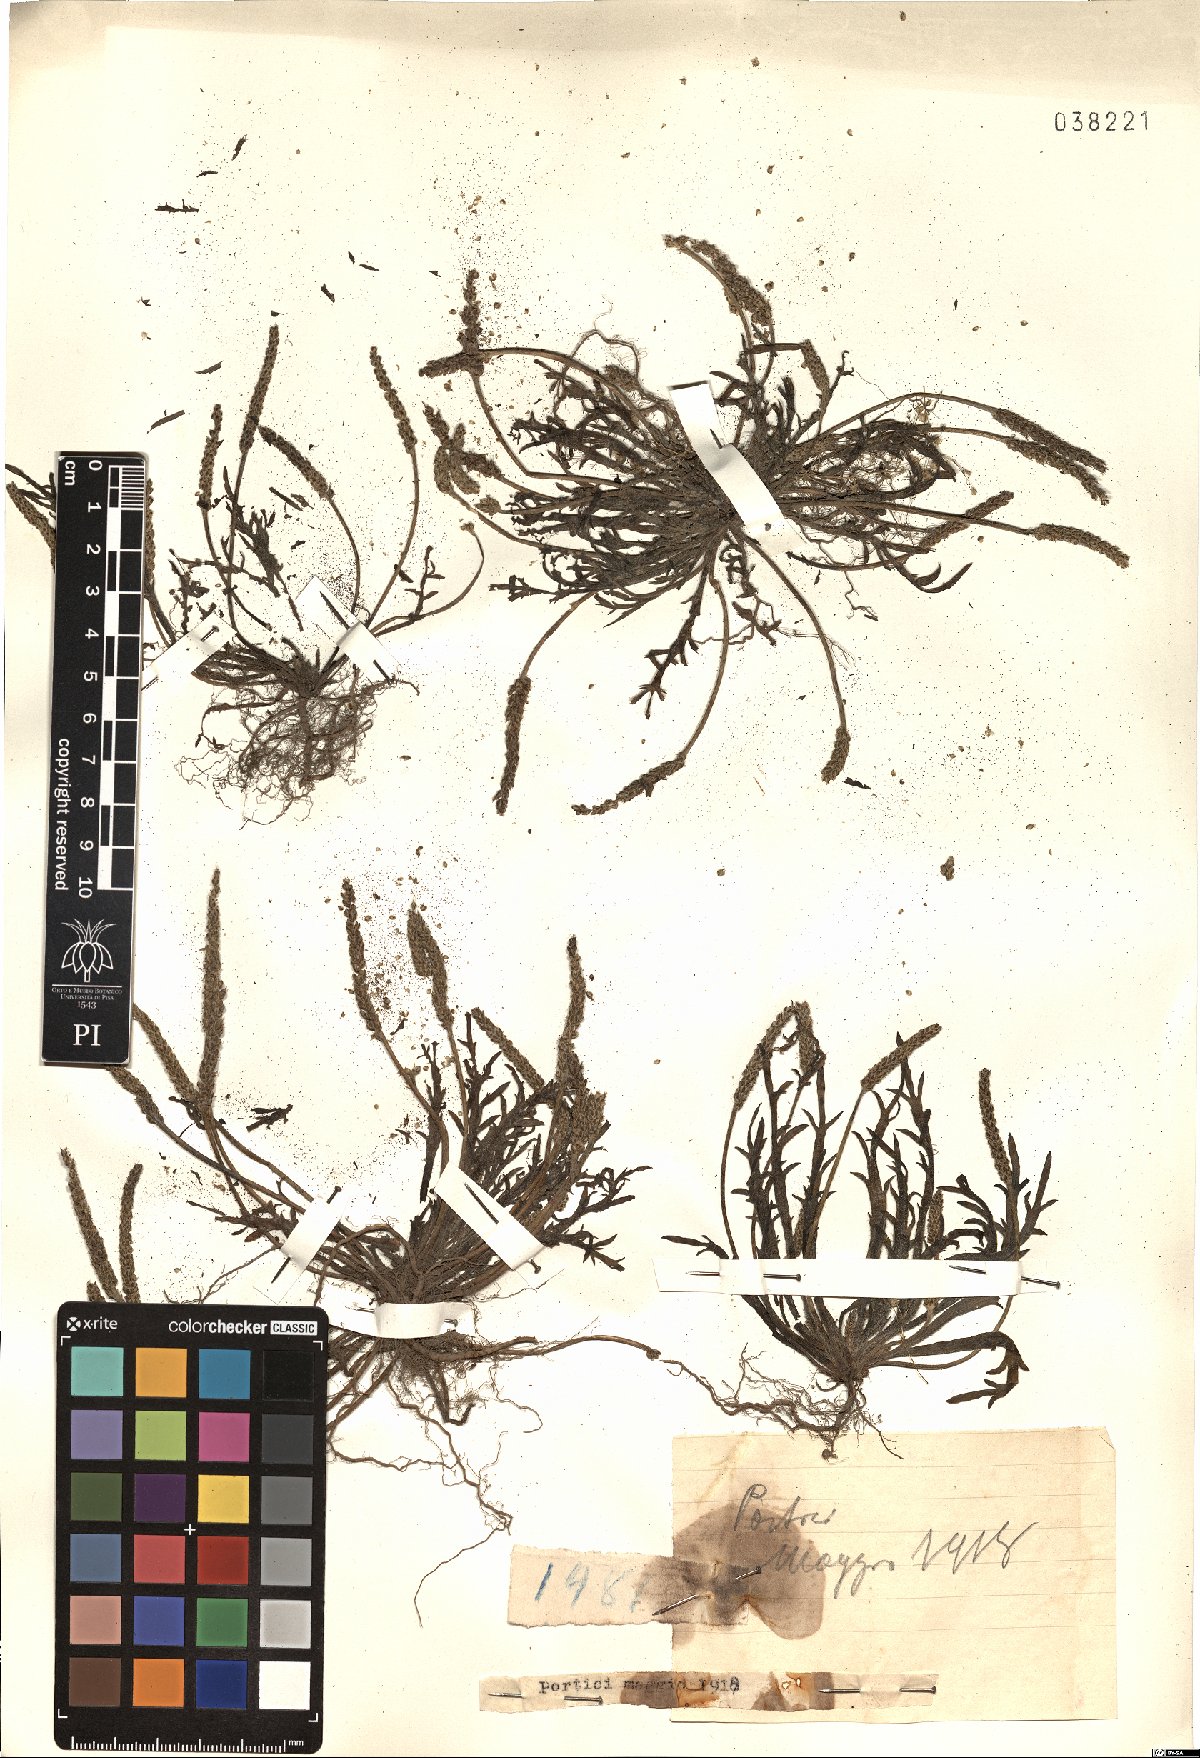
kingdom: Plantae
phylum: Tracheophyta
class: Magnoliopsida
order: Lamiales
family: Plantaginaceae
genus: Plantago
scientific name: Plantago
